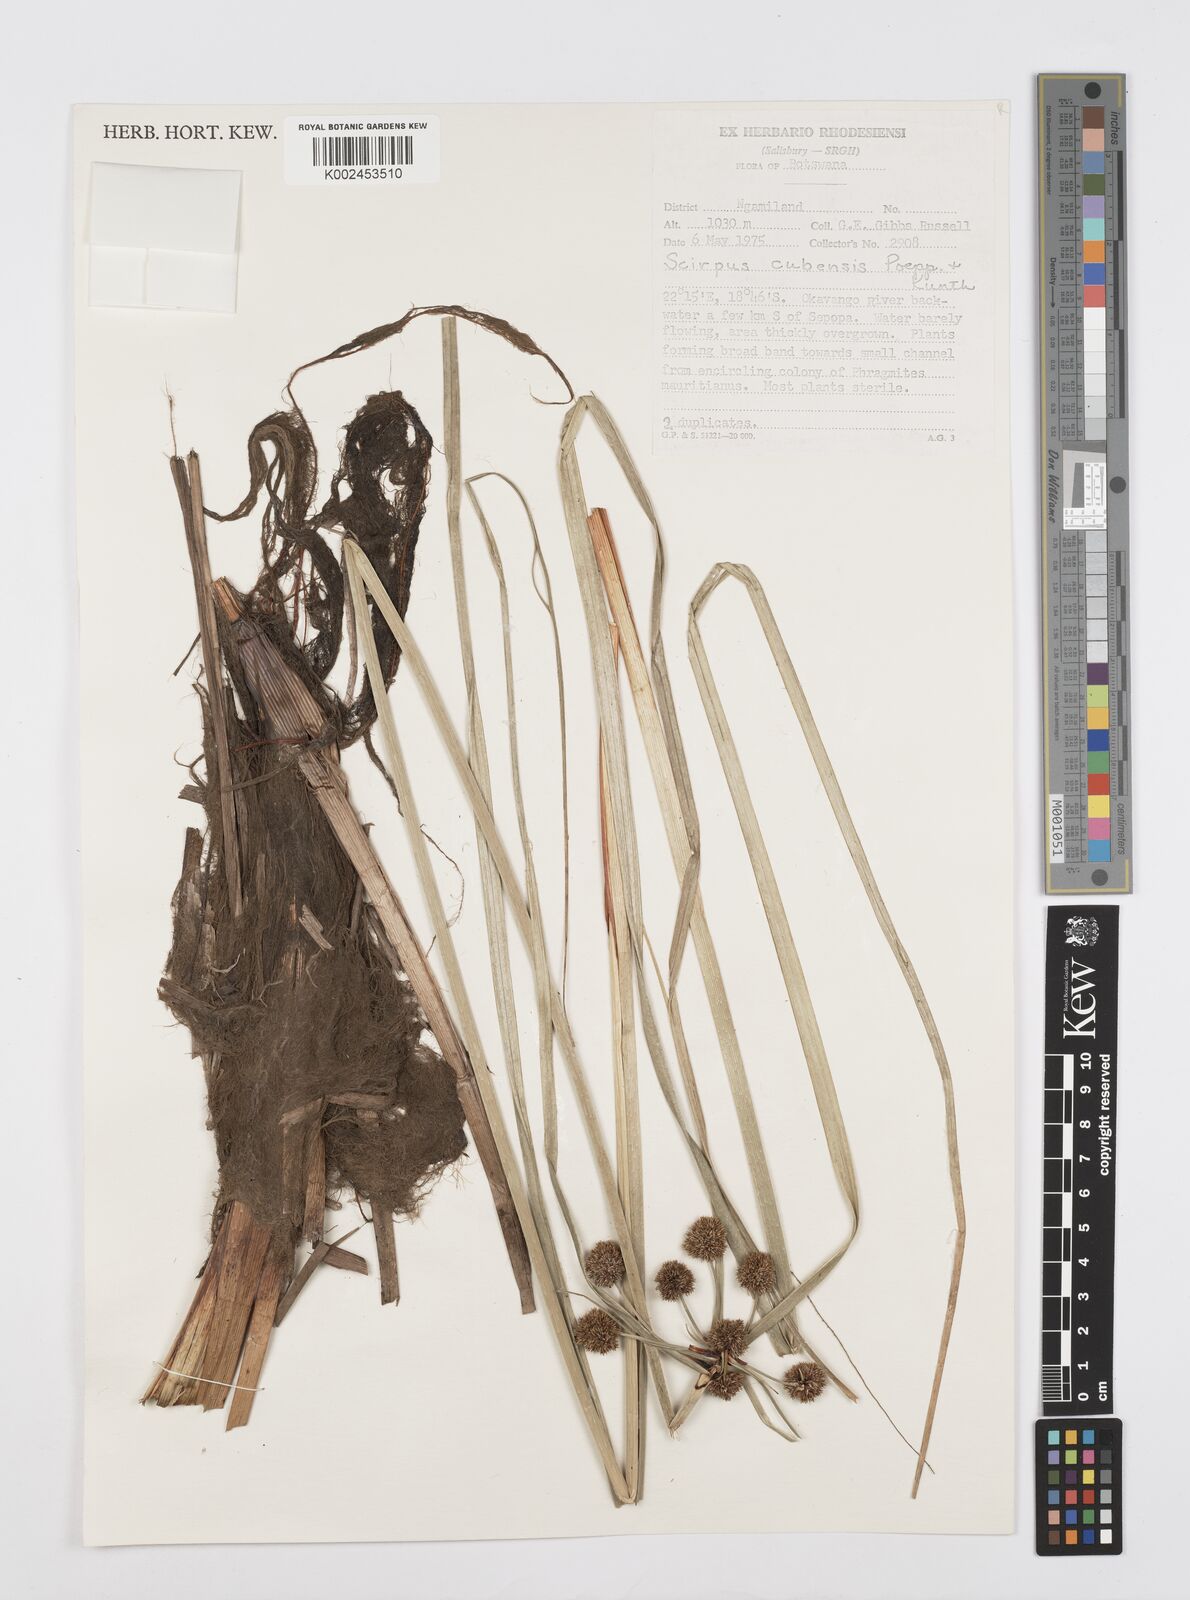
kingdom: Plantae
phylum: Tracheophyta
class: Liliopsida
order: Poales
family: Cyperaceae
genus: Cyperus
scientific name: Cyperus elegans
